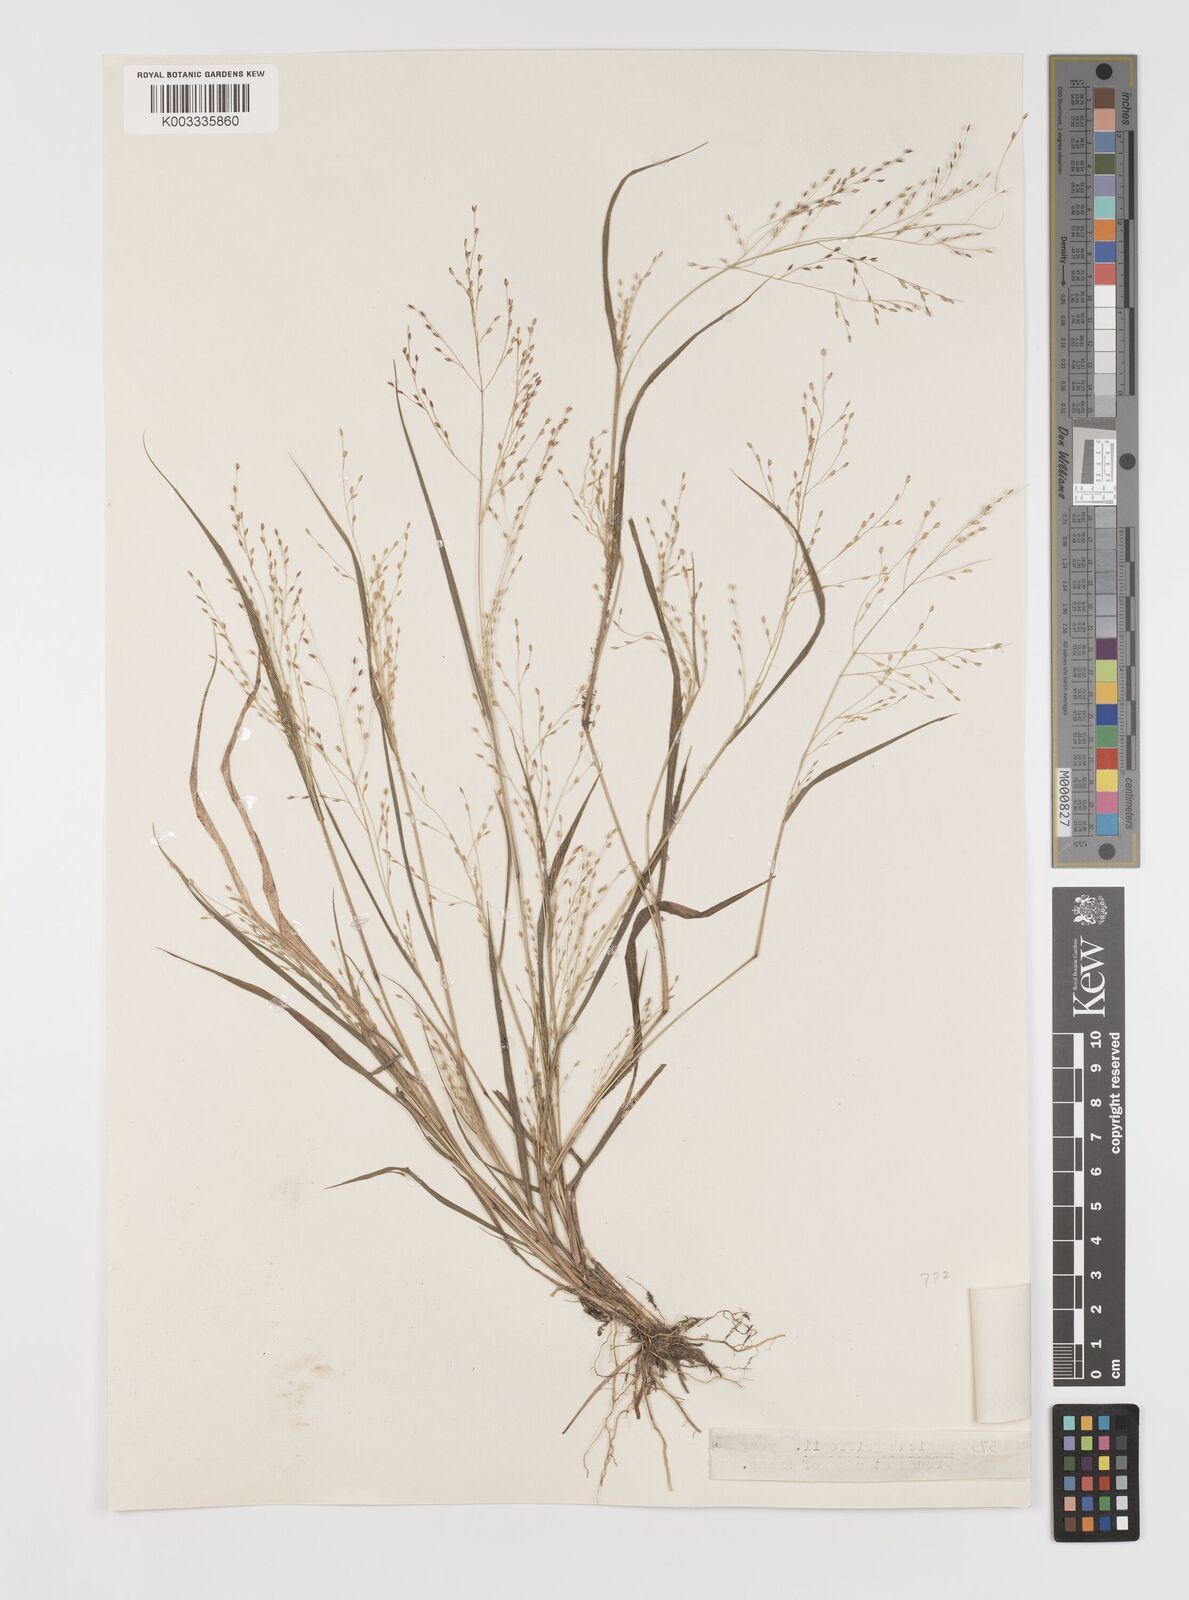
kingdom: Plantae
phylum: Tracheophyta
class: Liliopsida
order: Poales
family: Poaceae
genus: Panicum
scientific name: Panicum griffonii
